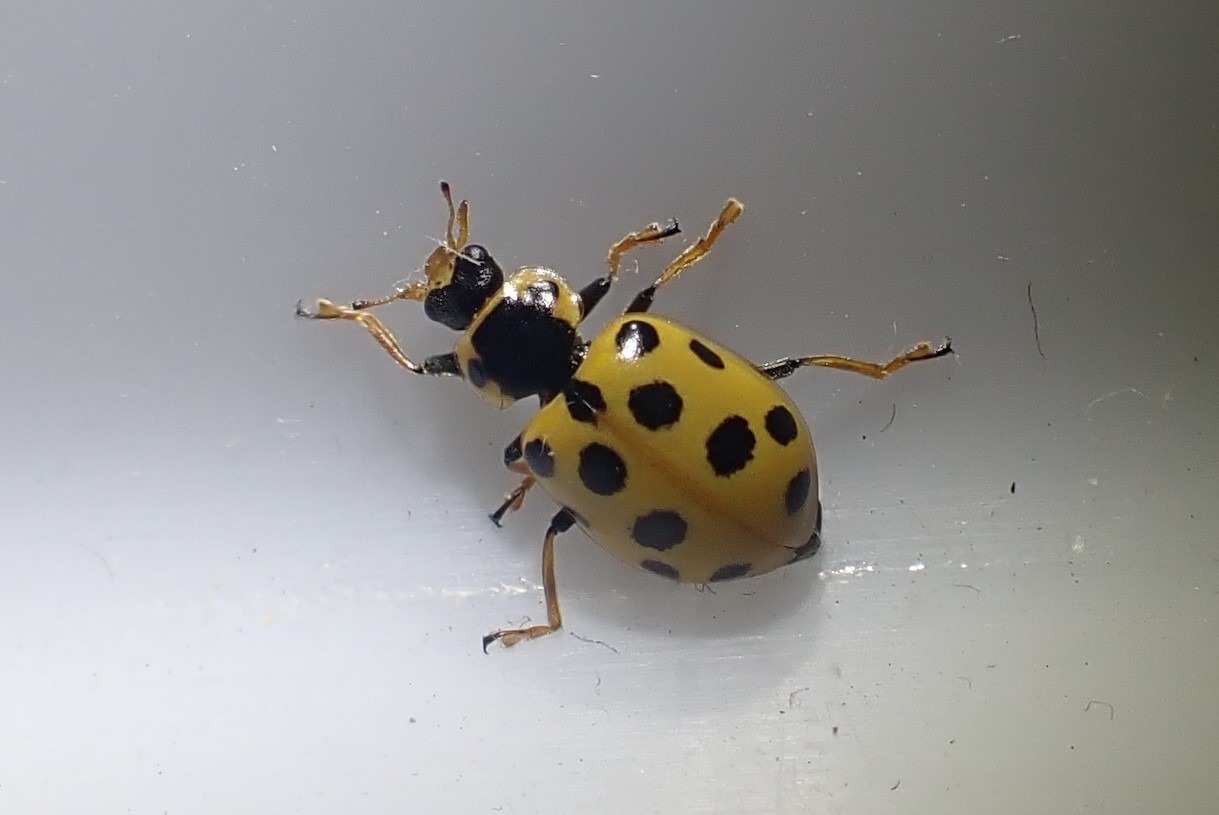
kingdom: Animalia
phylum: Arthropoda
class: Insecta
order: Coleoptera
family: Coccinellidae
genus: Hippodamia
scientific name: Hippodamia tredecimpunctata
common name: Trettenplettet mariehøne
